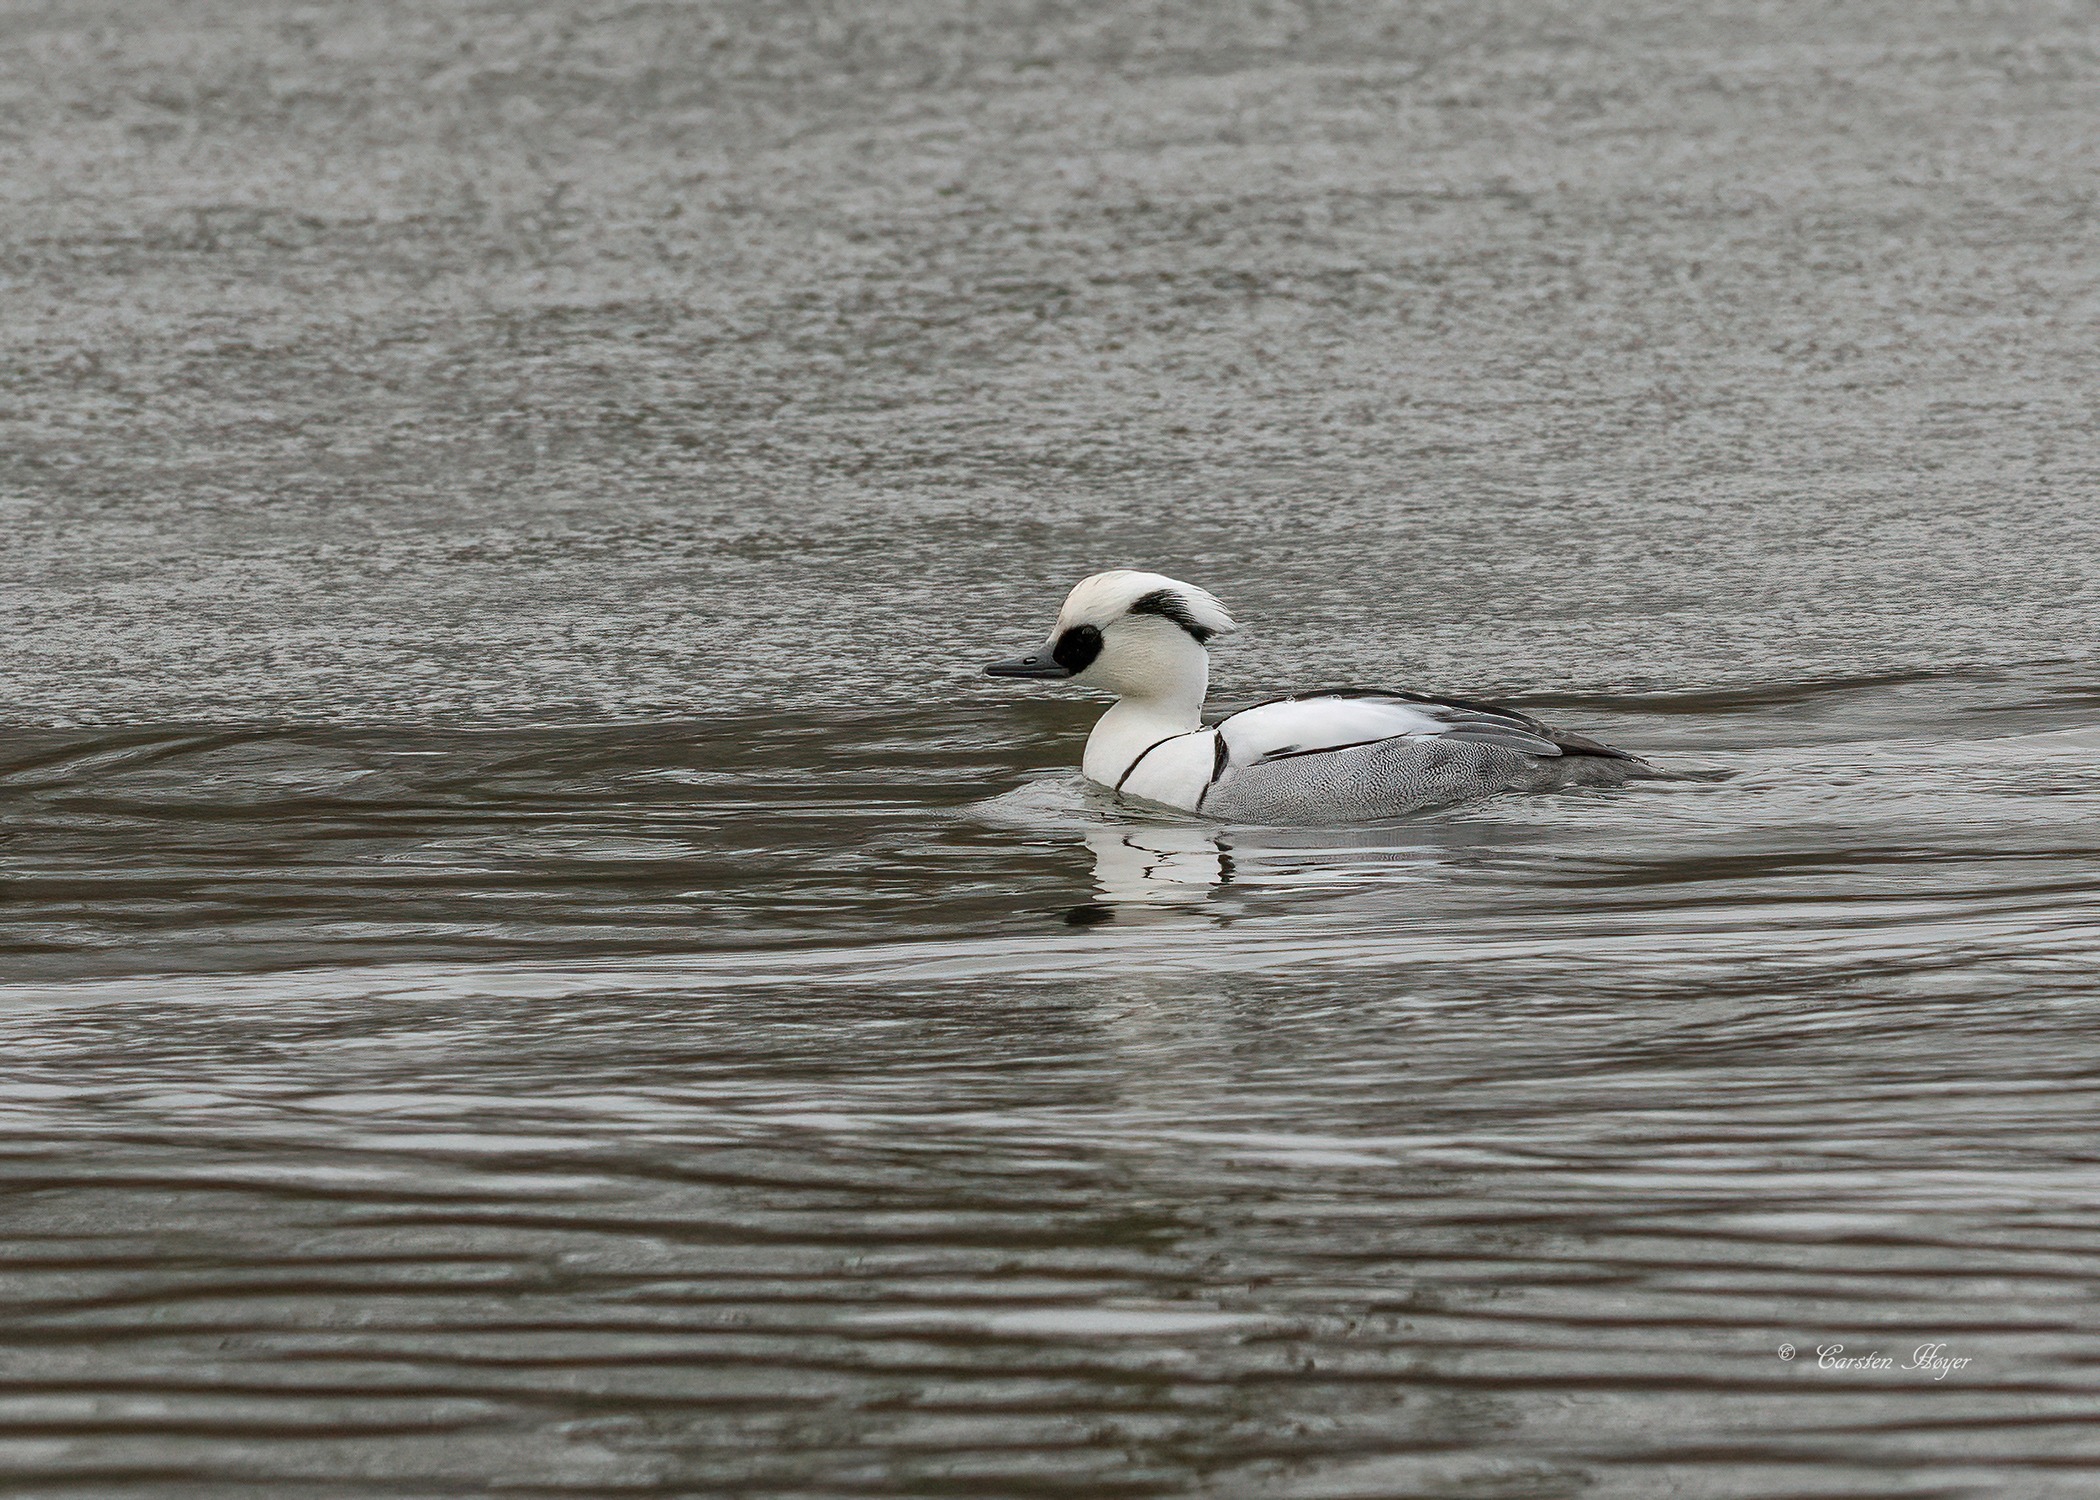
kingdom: Animalia
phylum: Chordata
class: Aves
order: Anseriformes
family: Anatidae
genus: Mergellus
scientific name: Mergellus albellus
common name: Lille skallesluger
